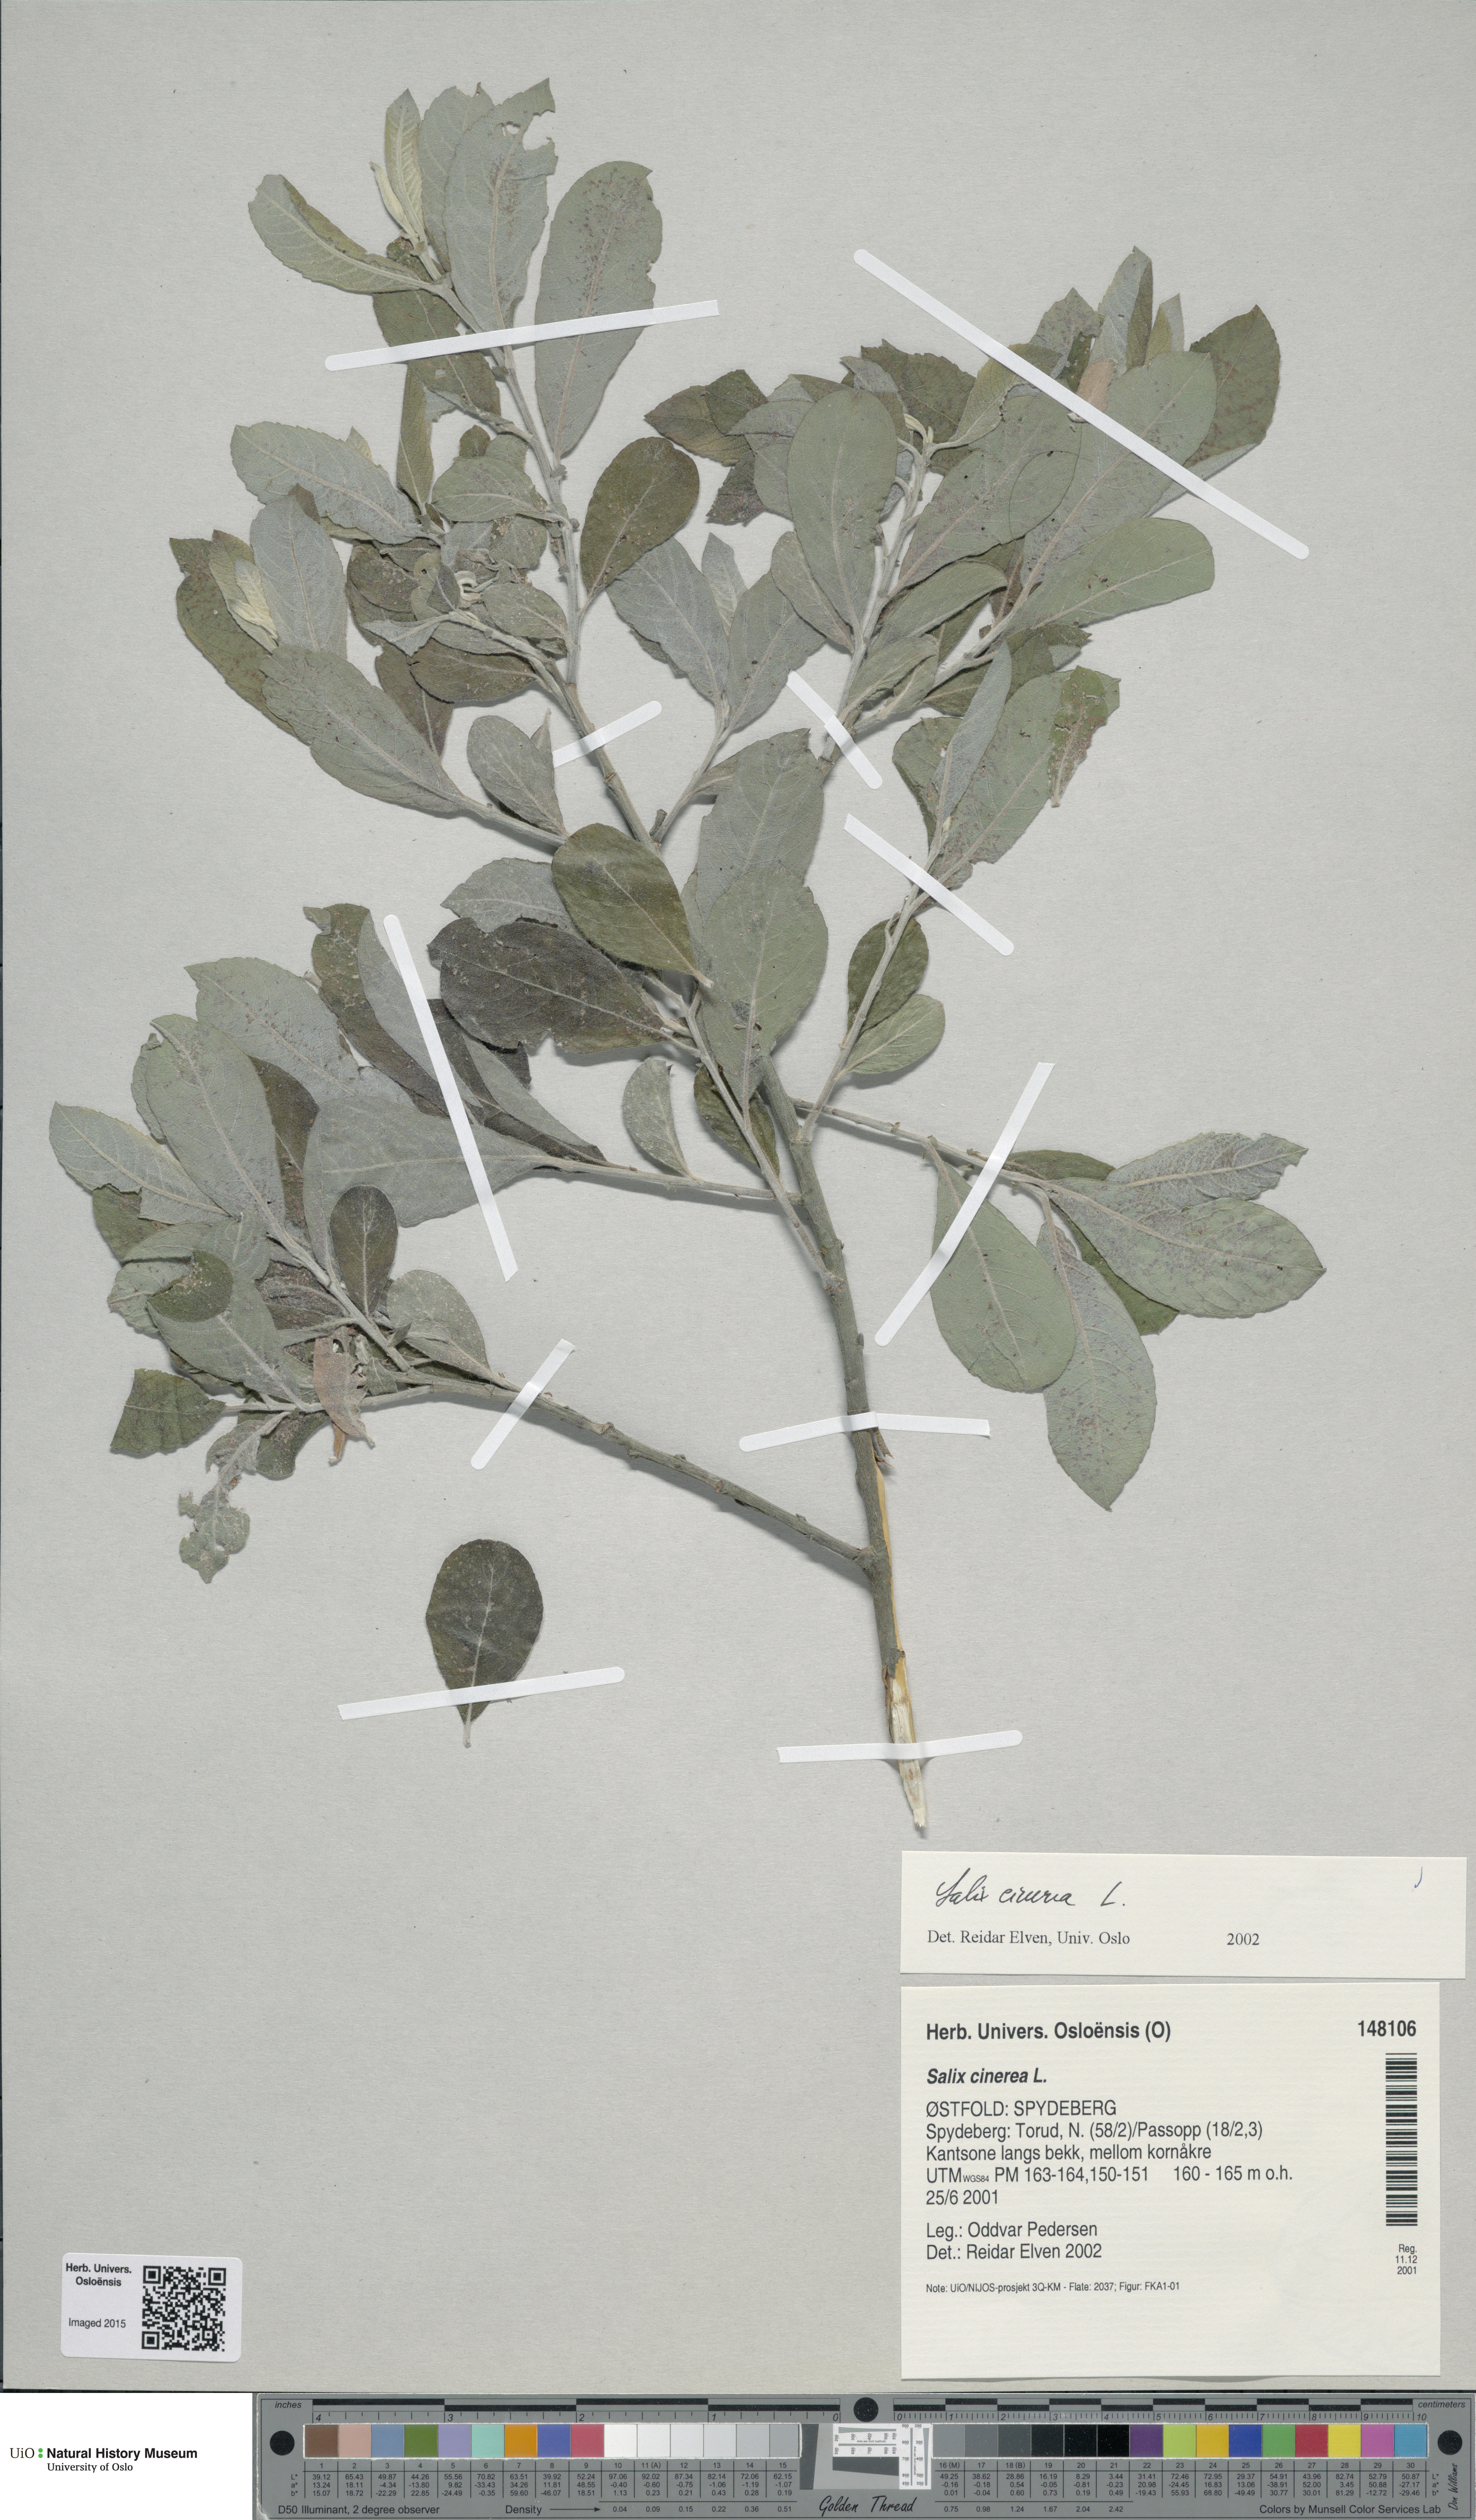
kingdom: Plantae
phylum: Tracheophyta
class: Magnoliopsida
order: Malpighiales
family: Salicaceae
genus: Salix
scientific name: Salix cinerea
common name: Common sallow
